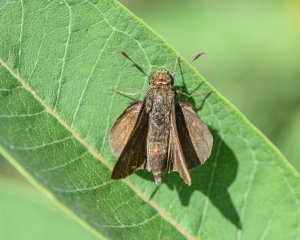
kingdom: Animalia
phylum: Arthropoda
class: Insecta
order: Lepidoptera
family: Hesperiidae
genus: Euphyes
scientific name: Euphyes vestris
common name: Dun Skipper
